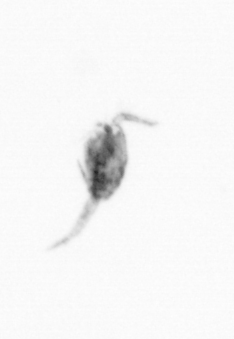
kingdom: Animalia
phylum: Arthropoda
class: Copepoda
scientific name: Copepoda
